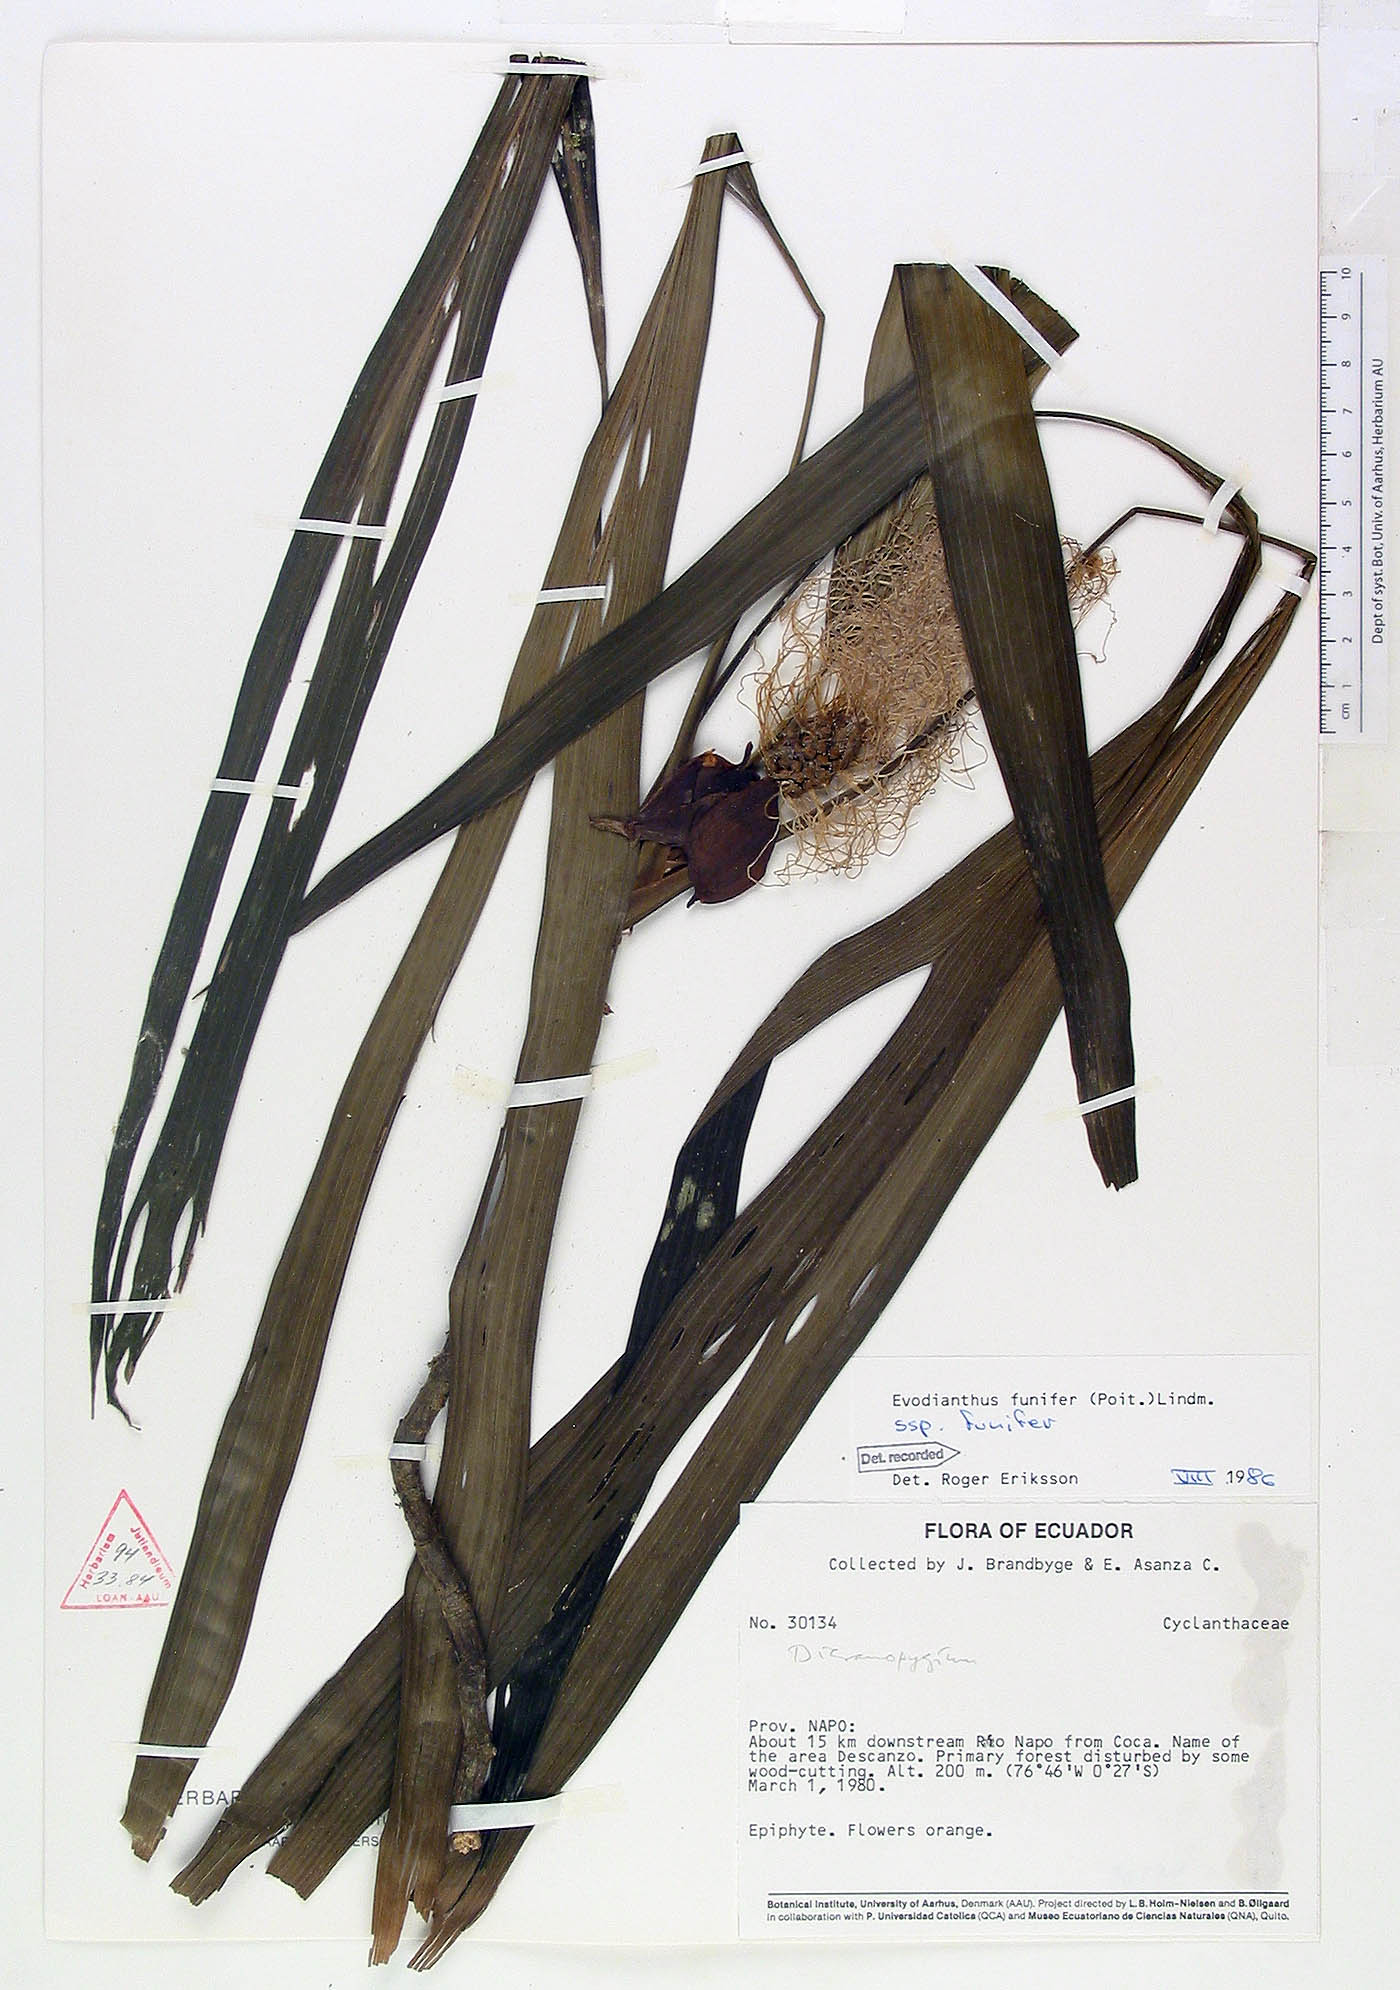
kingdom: Plantae
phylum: Tracheophyta
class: Liliopsida
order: Pandanales
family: Cyclanthaceae
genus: Evodianthus
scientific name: Evodianthus funifer
